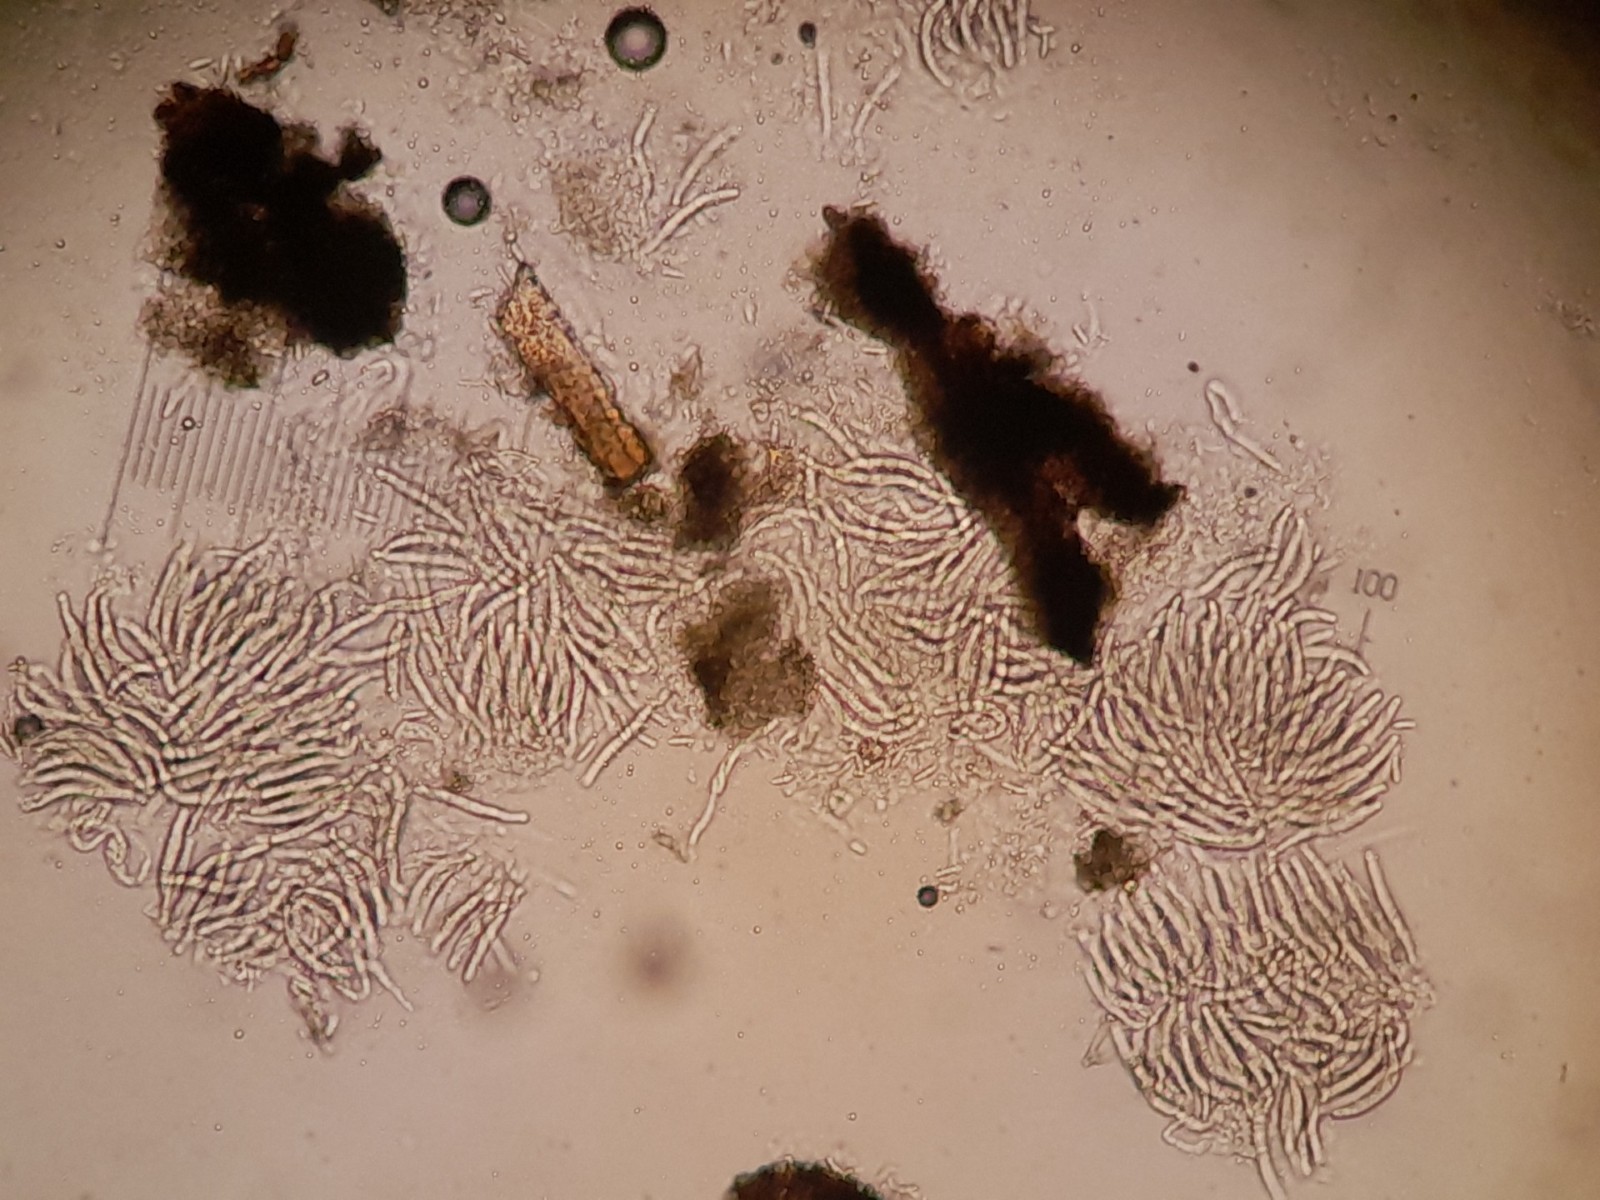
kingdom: Plantae
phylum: Bryophyta
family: Dothideomycetes
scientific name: Dothideomycetes
